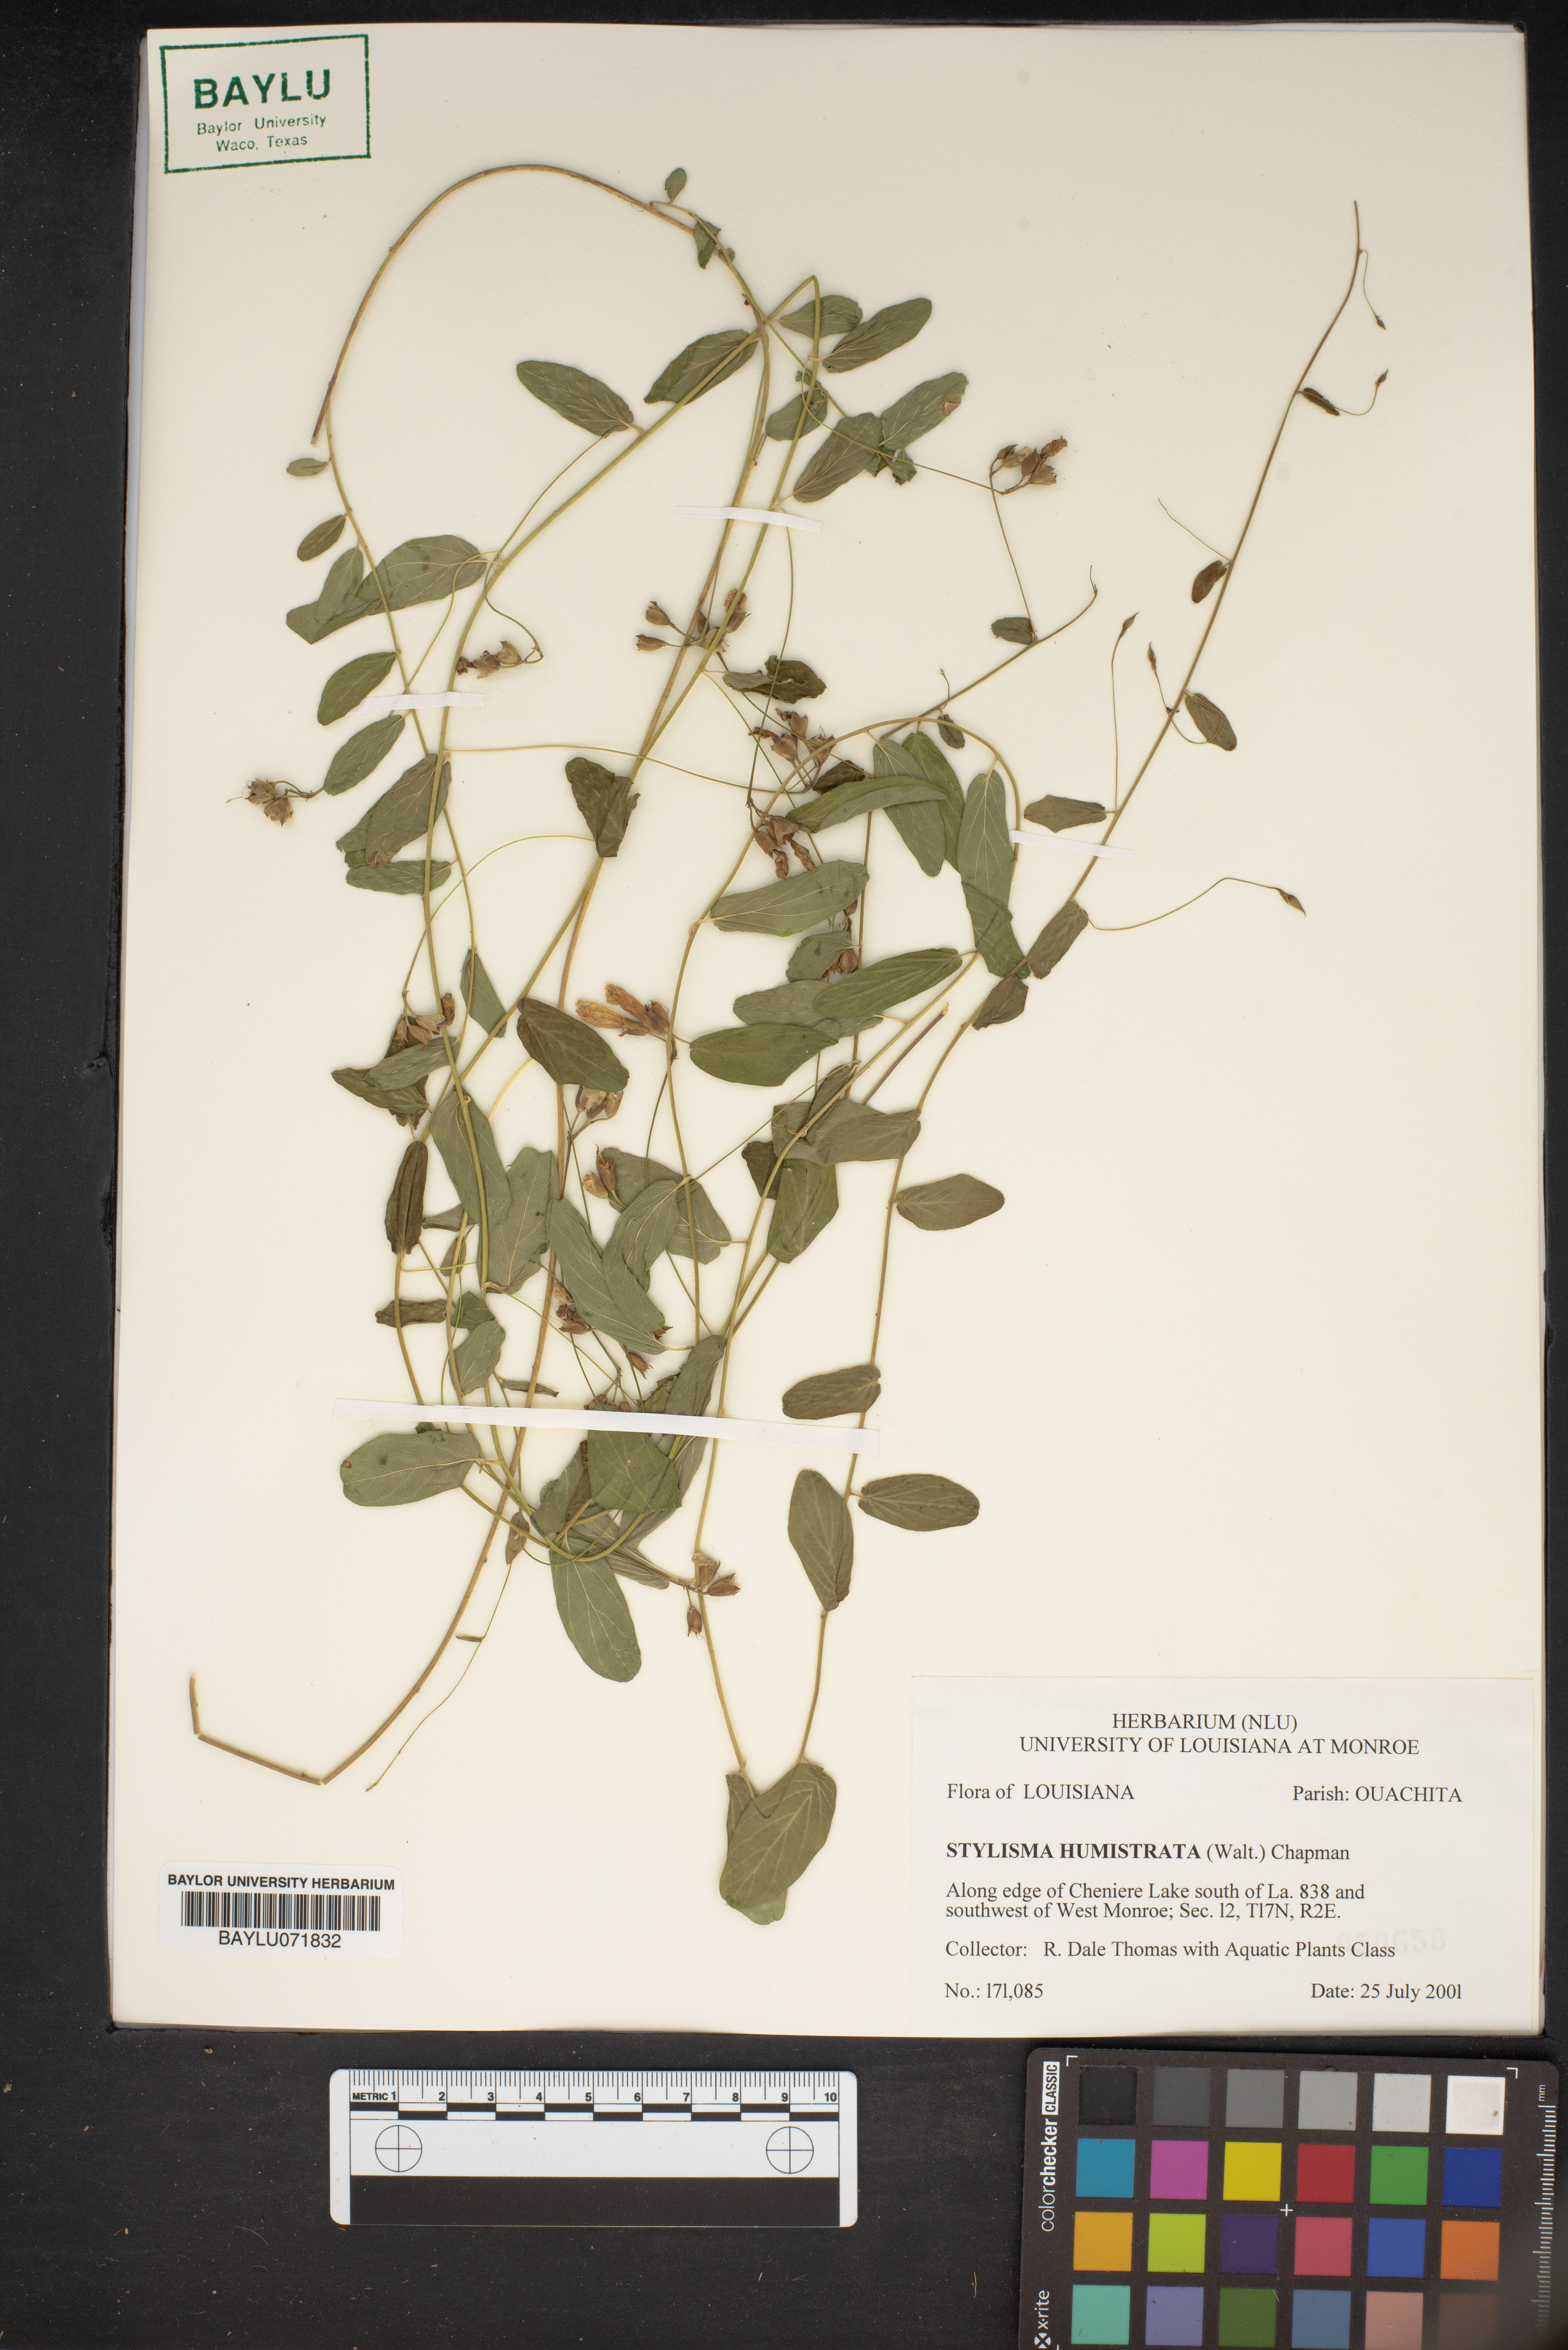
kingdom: Plantae
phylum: Tracheophyta
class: Magnoliopsida
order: Solanales
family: Convolvulaceae
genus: Stylisma
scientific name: Stylisma humistrata
